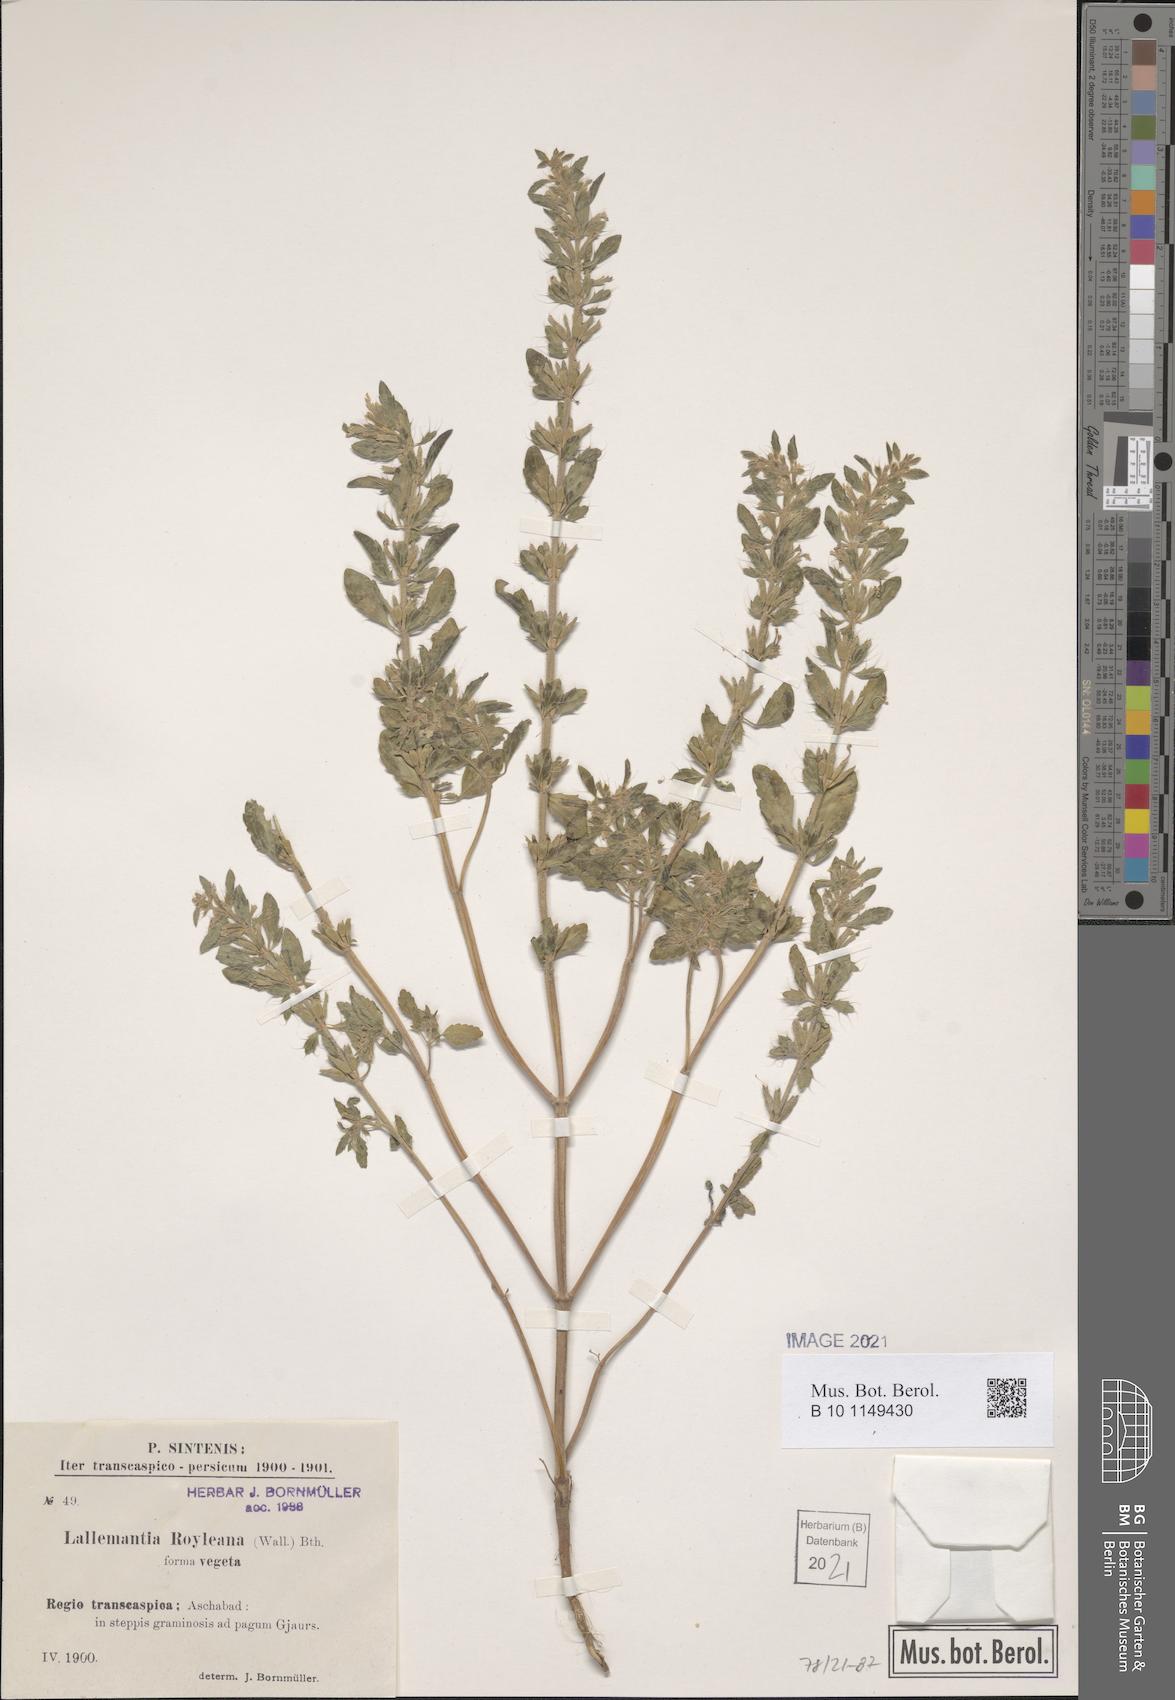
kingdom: Plantae
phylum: Tracheophyta
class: Magnoliopsida
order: Lamiales
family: Lamiaceae
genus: Lallemantia
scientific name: Lallemantia royleana
